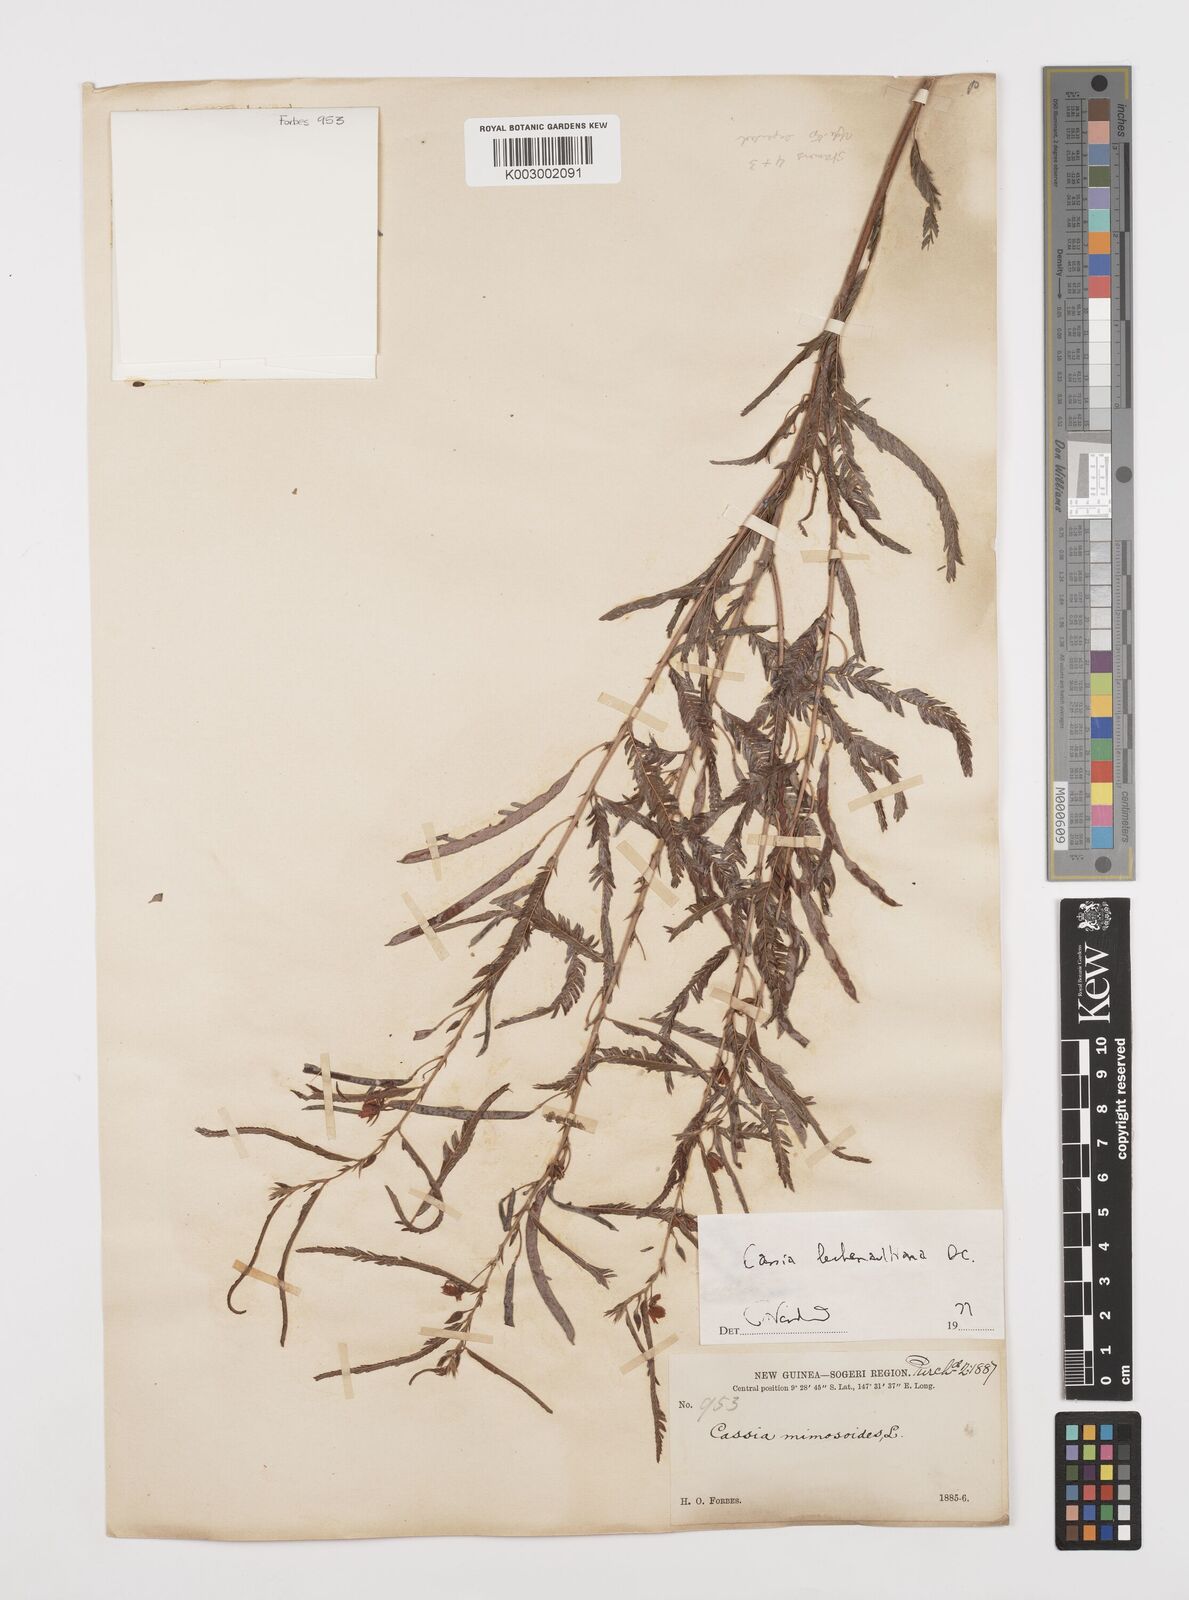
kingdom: Plantae
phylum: Tracheophyta
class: Magnoliopsida
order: Fabales
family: Fabaceae
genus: Chamaecrista
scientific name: Chamaecrista mimosoides
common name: Fish-bone cassia
